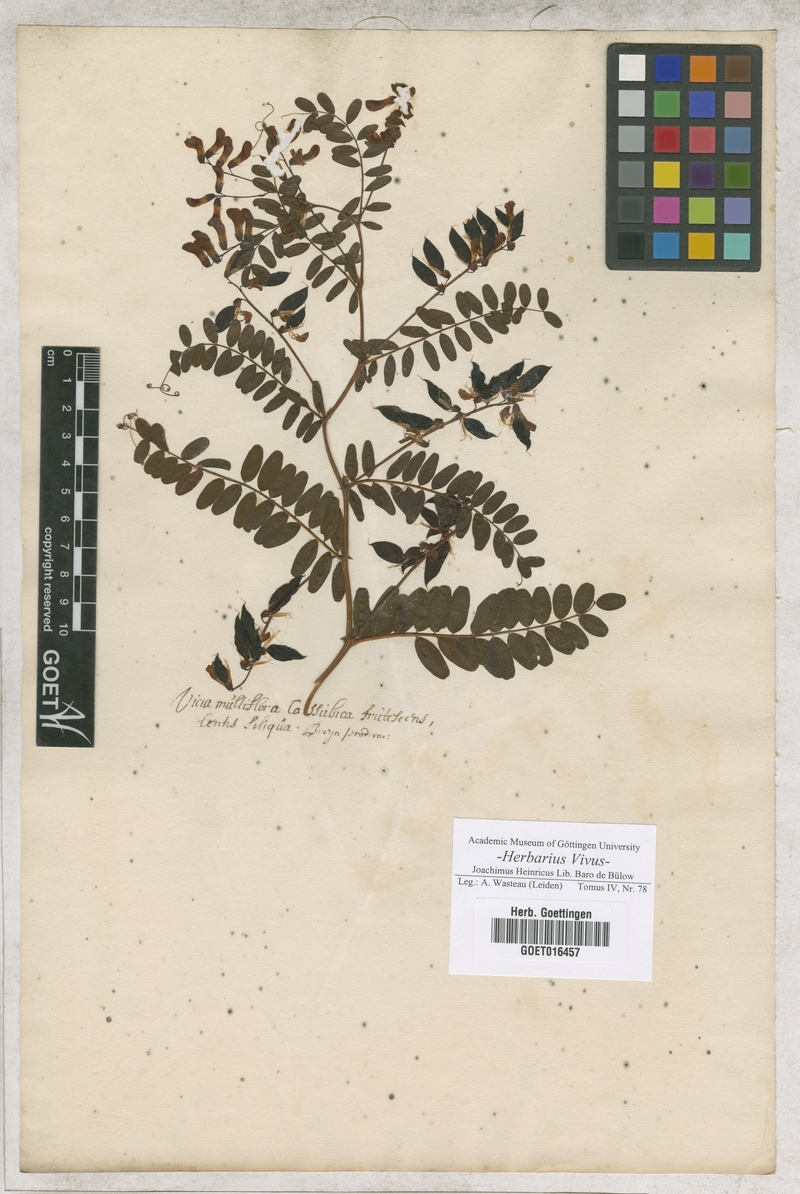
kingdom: Plantae
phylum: Tracheophyta
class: Magnoliopsida
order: Fabales
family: Fabaceae
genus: Vicia
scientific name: Vicia cassubica
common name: Danzig vetch
